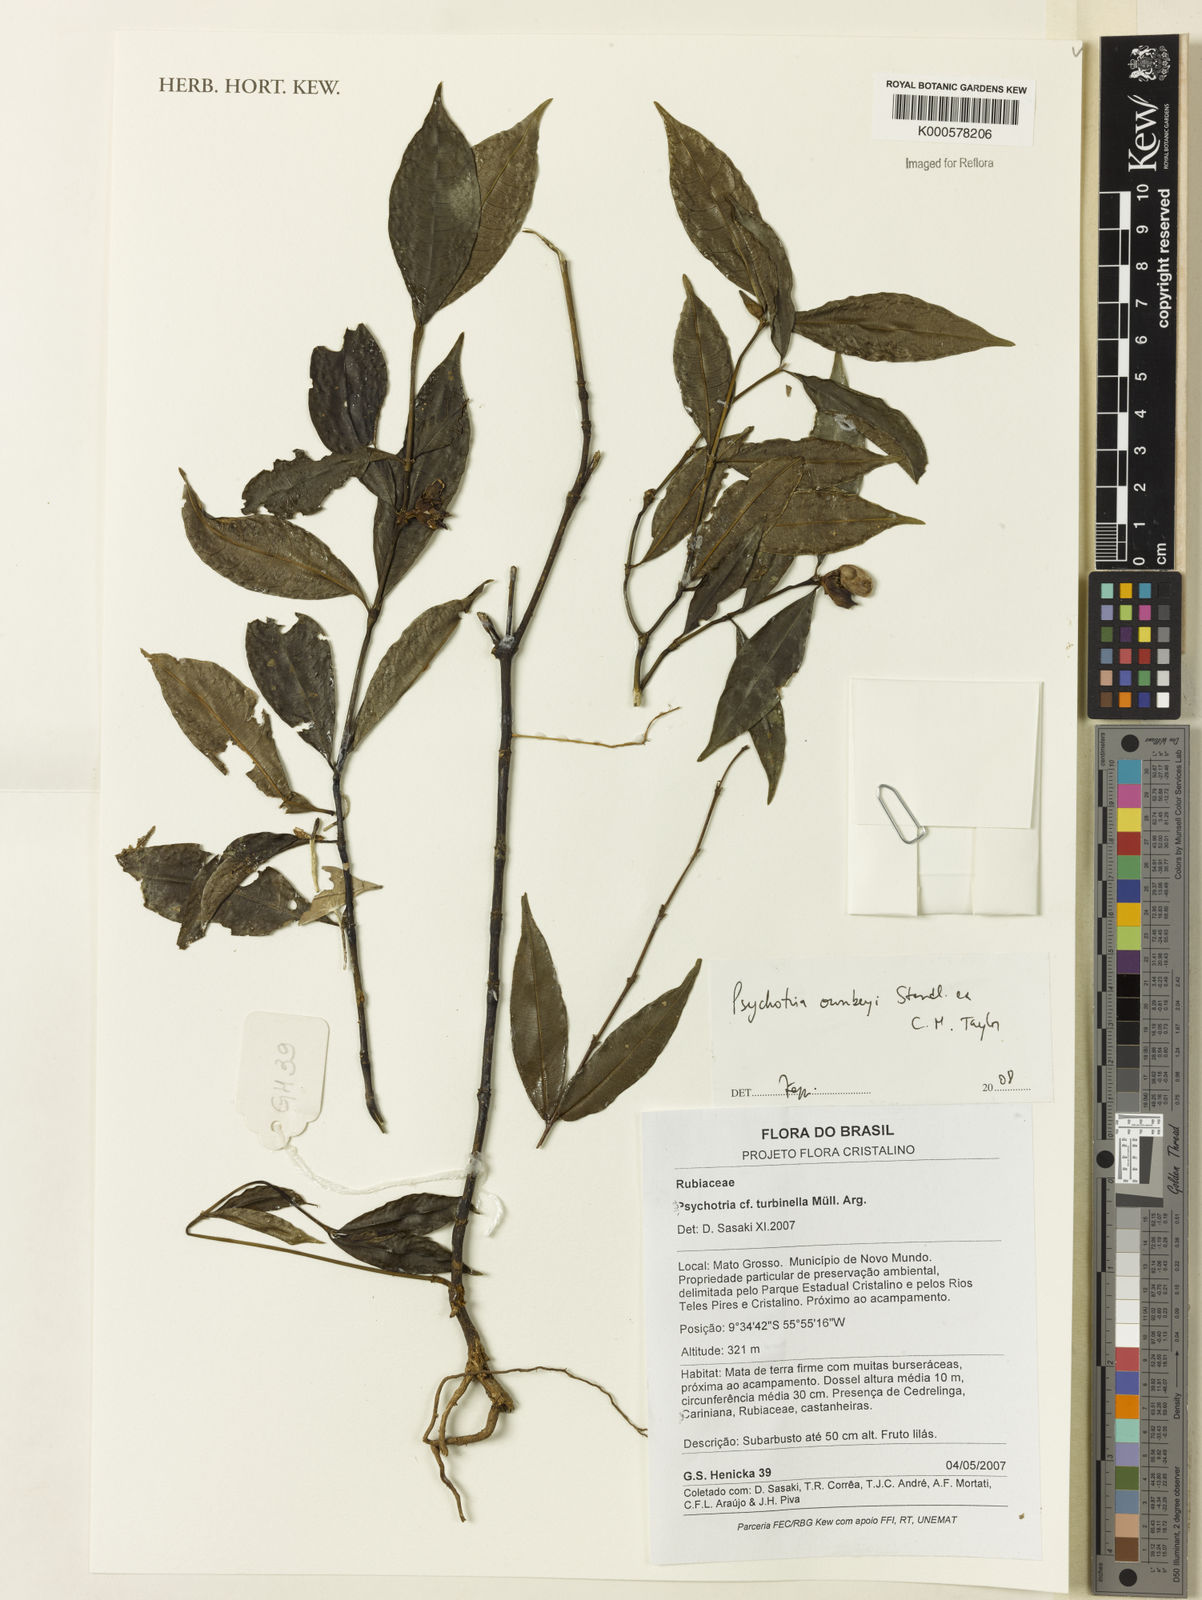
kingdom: Plantae
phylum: Tracheophyta
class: Magnoliopsida
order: Gentianales
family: Rubiaceae
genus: Palicourea
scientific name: Palicourea ownbeyi
